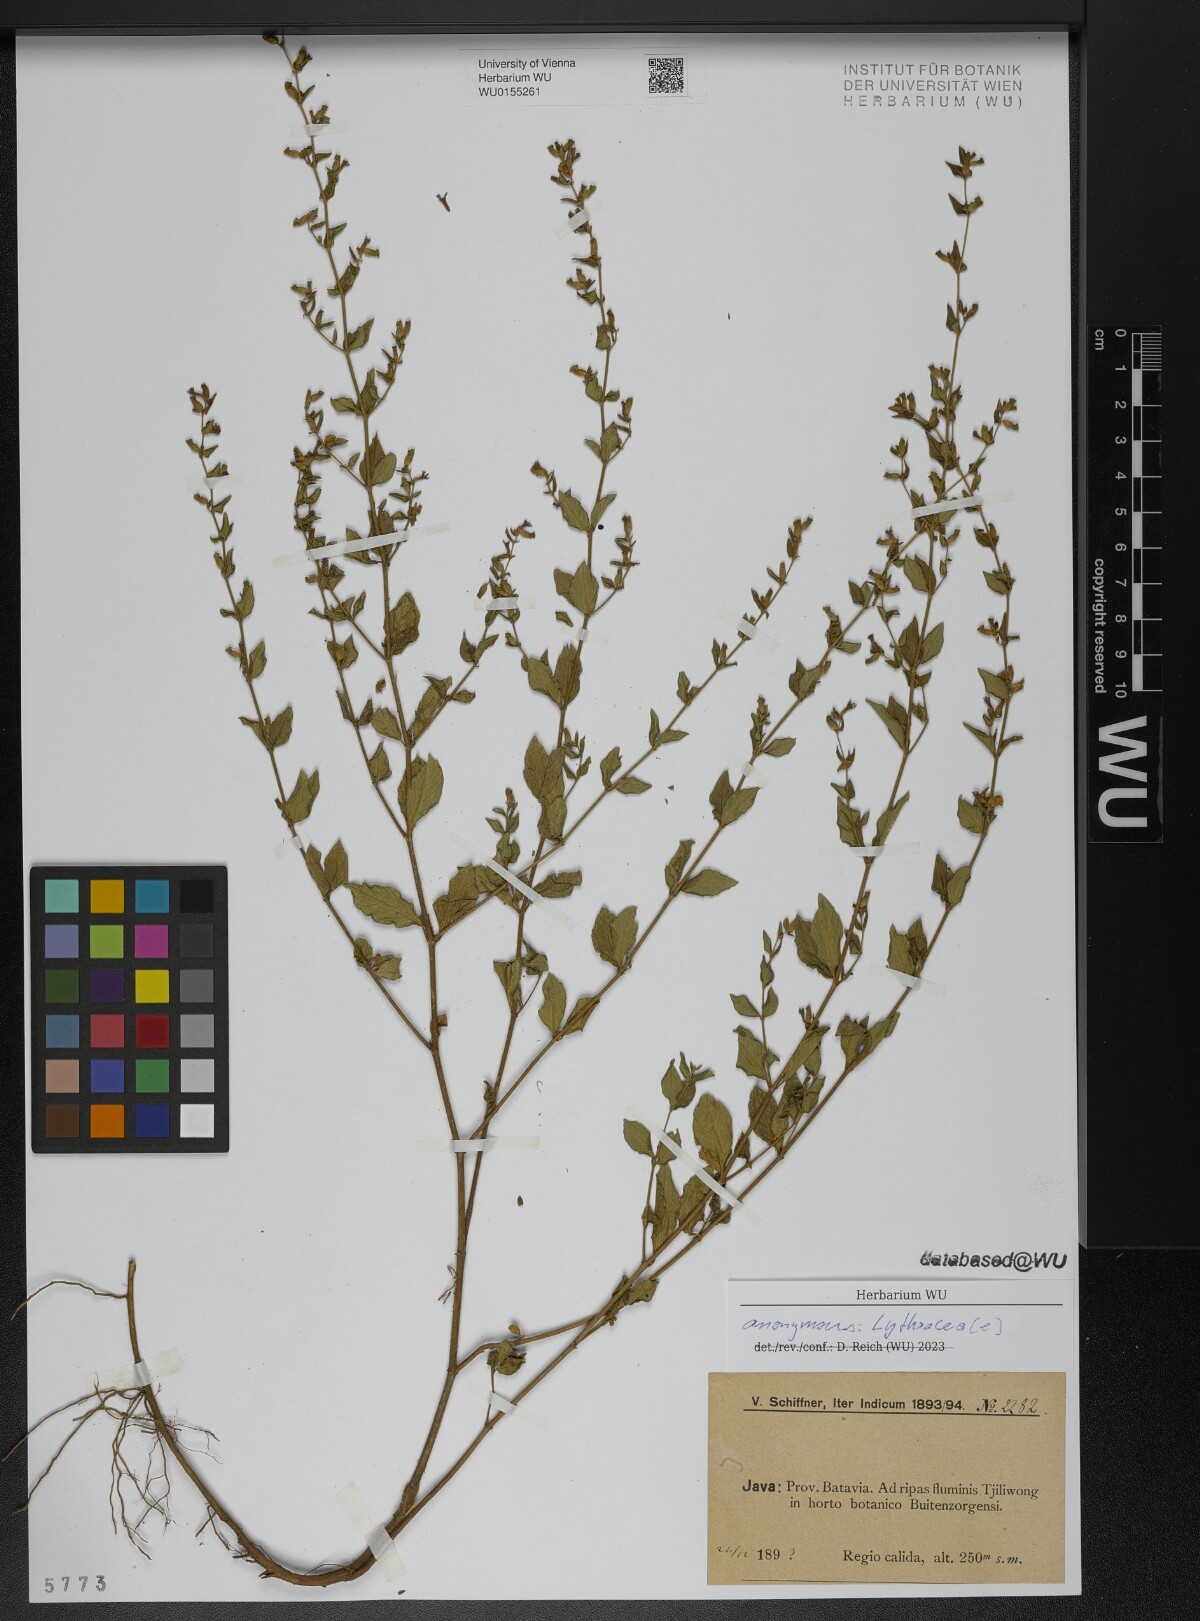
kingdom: Plantae
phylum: Tracheophyta
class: Magnoliopsida
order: Myrtales
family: Lythraceae
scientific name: Lythraceae
